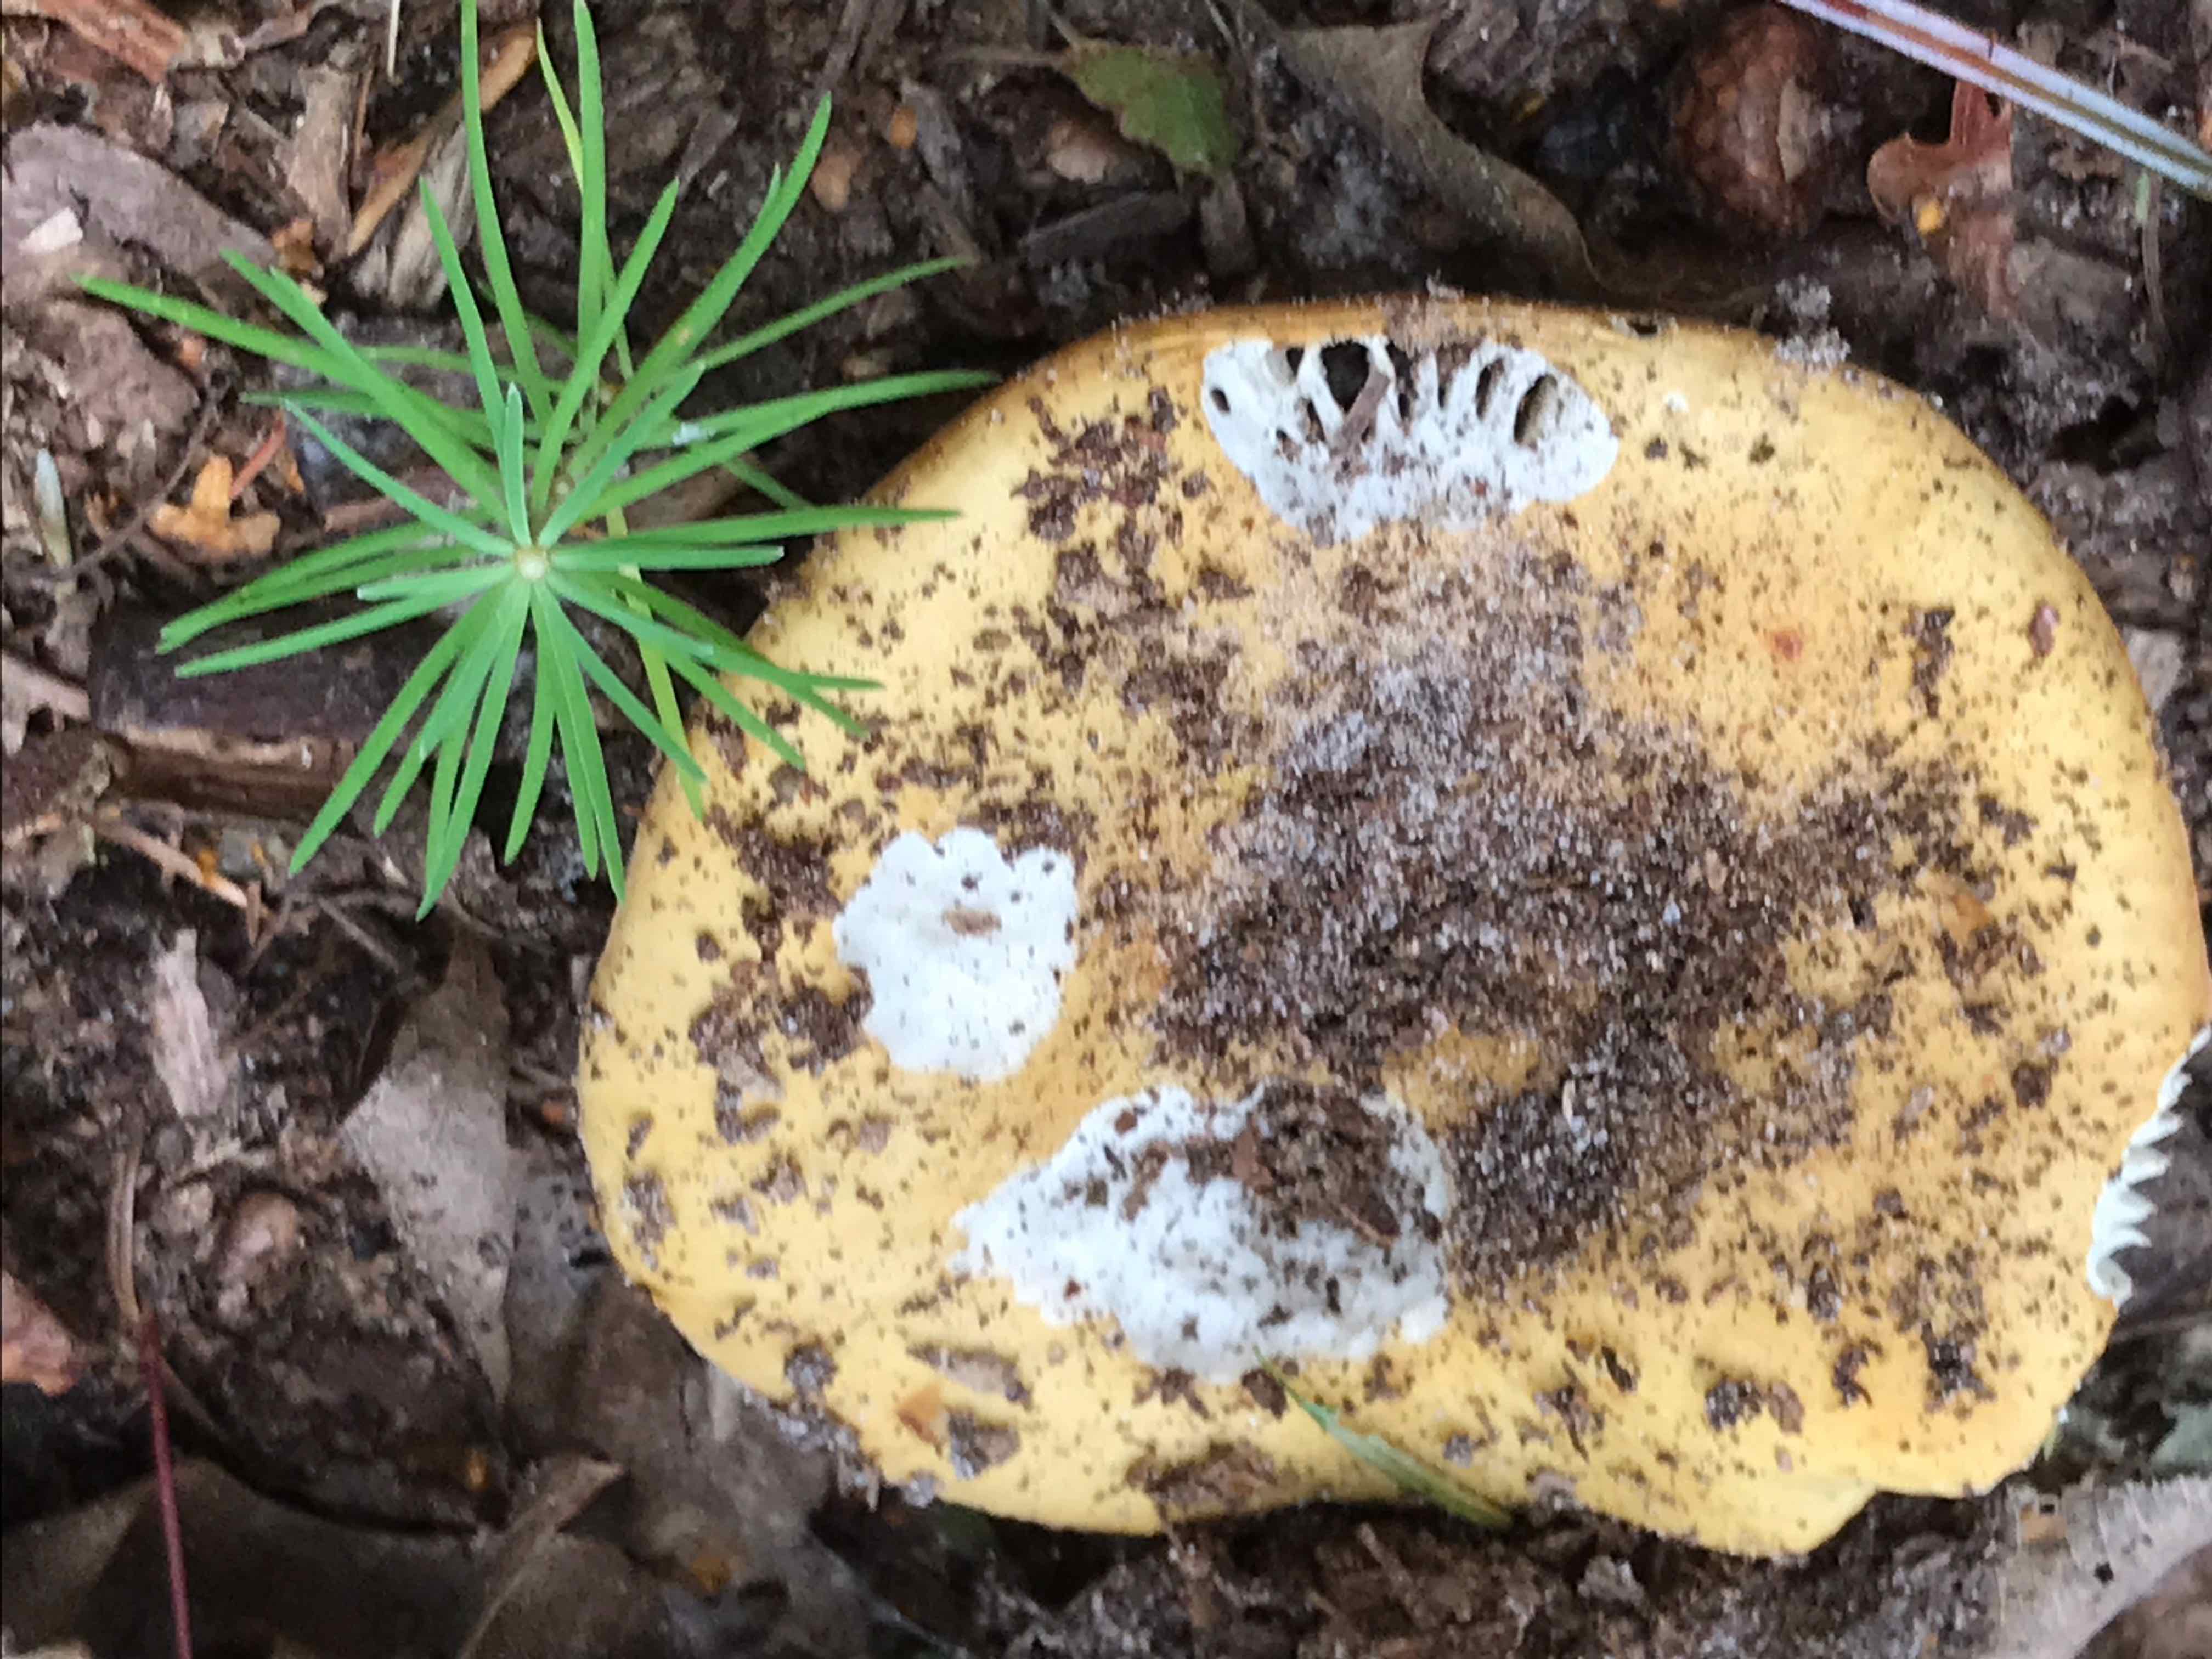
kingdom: Fungi
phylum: Basidiomycota
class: Agaricomycetes
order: Russulales
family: Russulaceae
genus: Russula
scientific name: Russula ochroleuca
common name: okkergul skørhat
